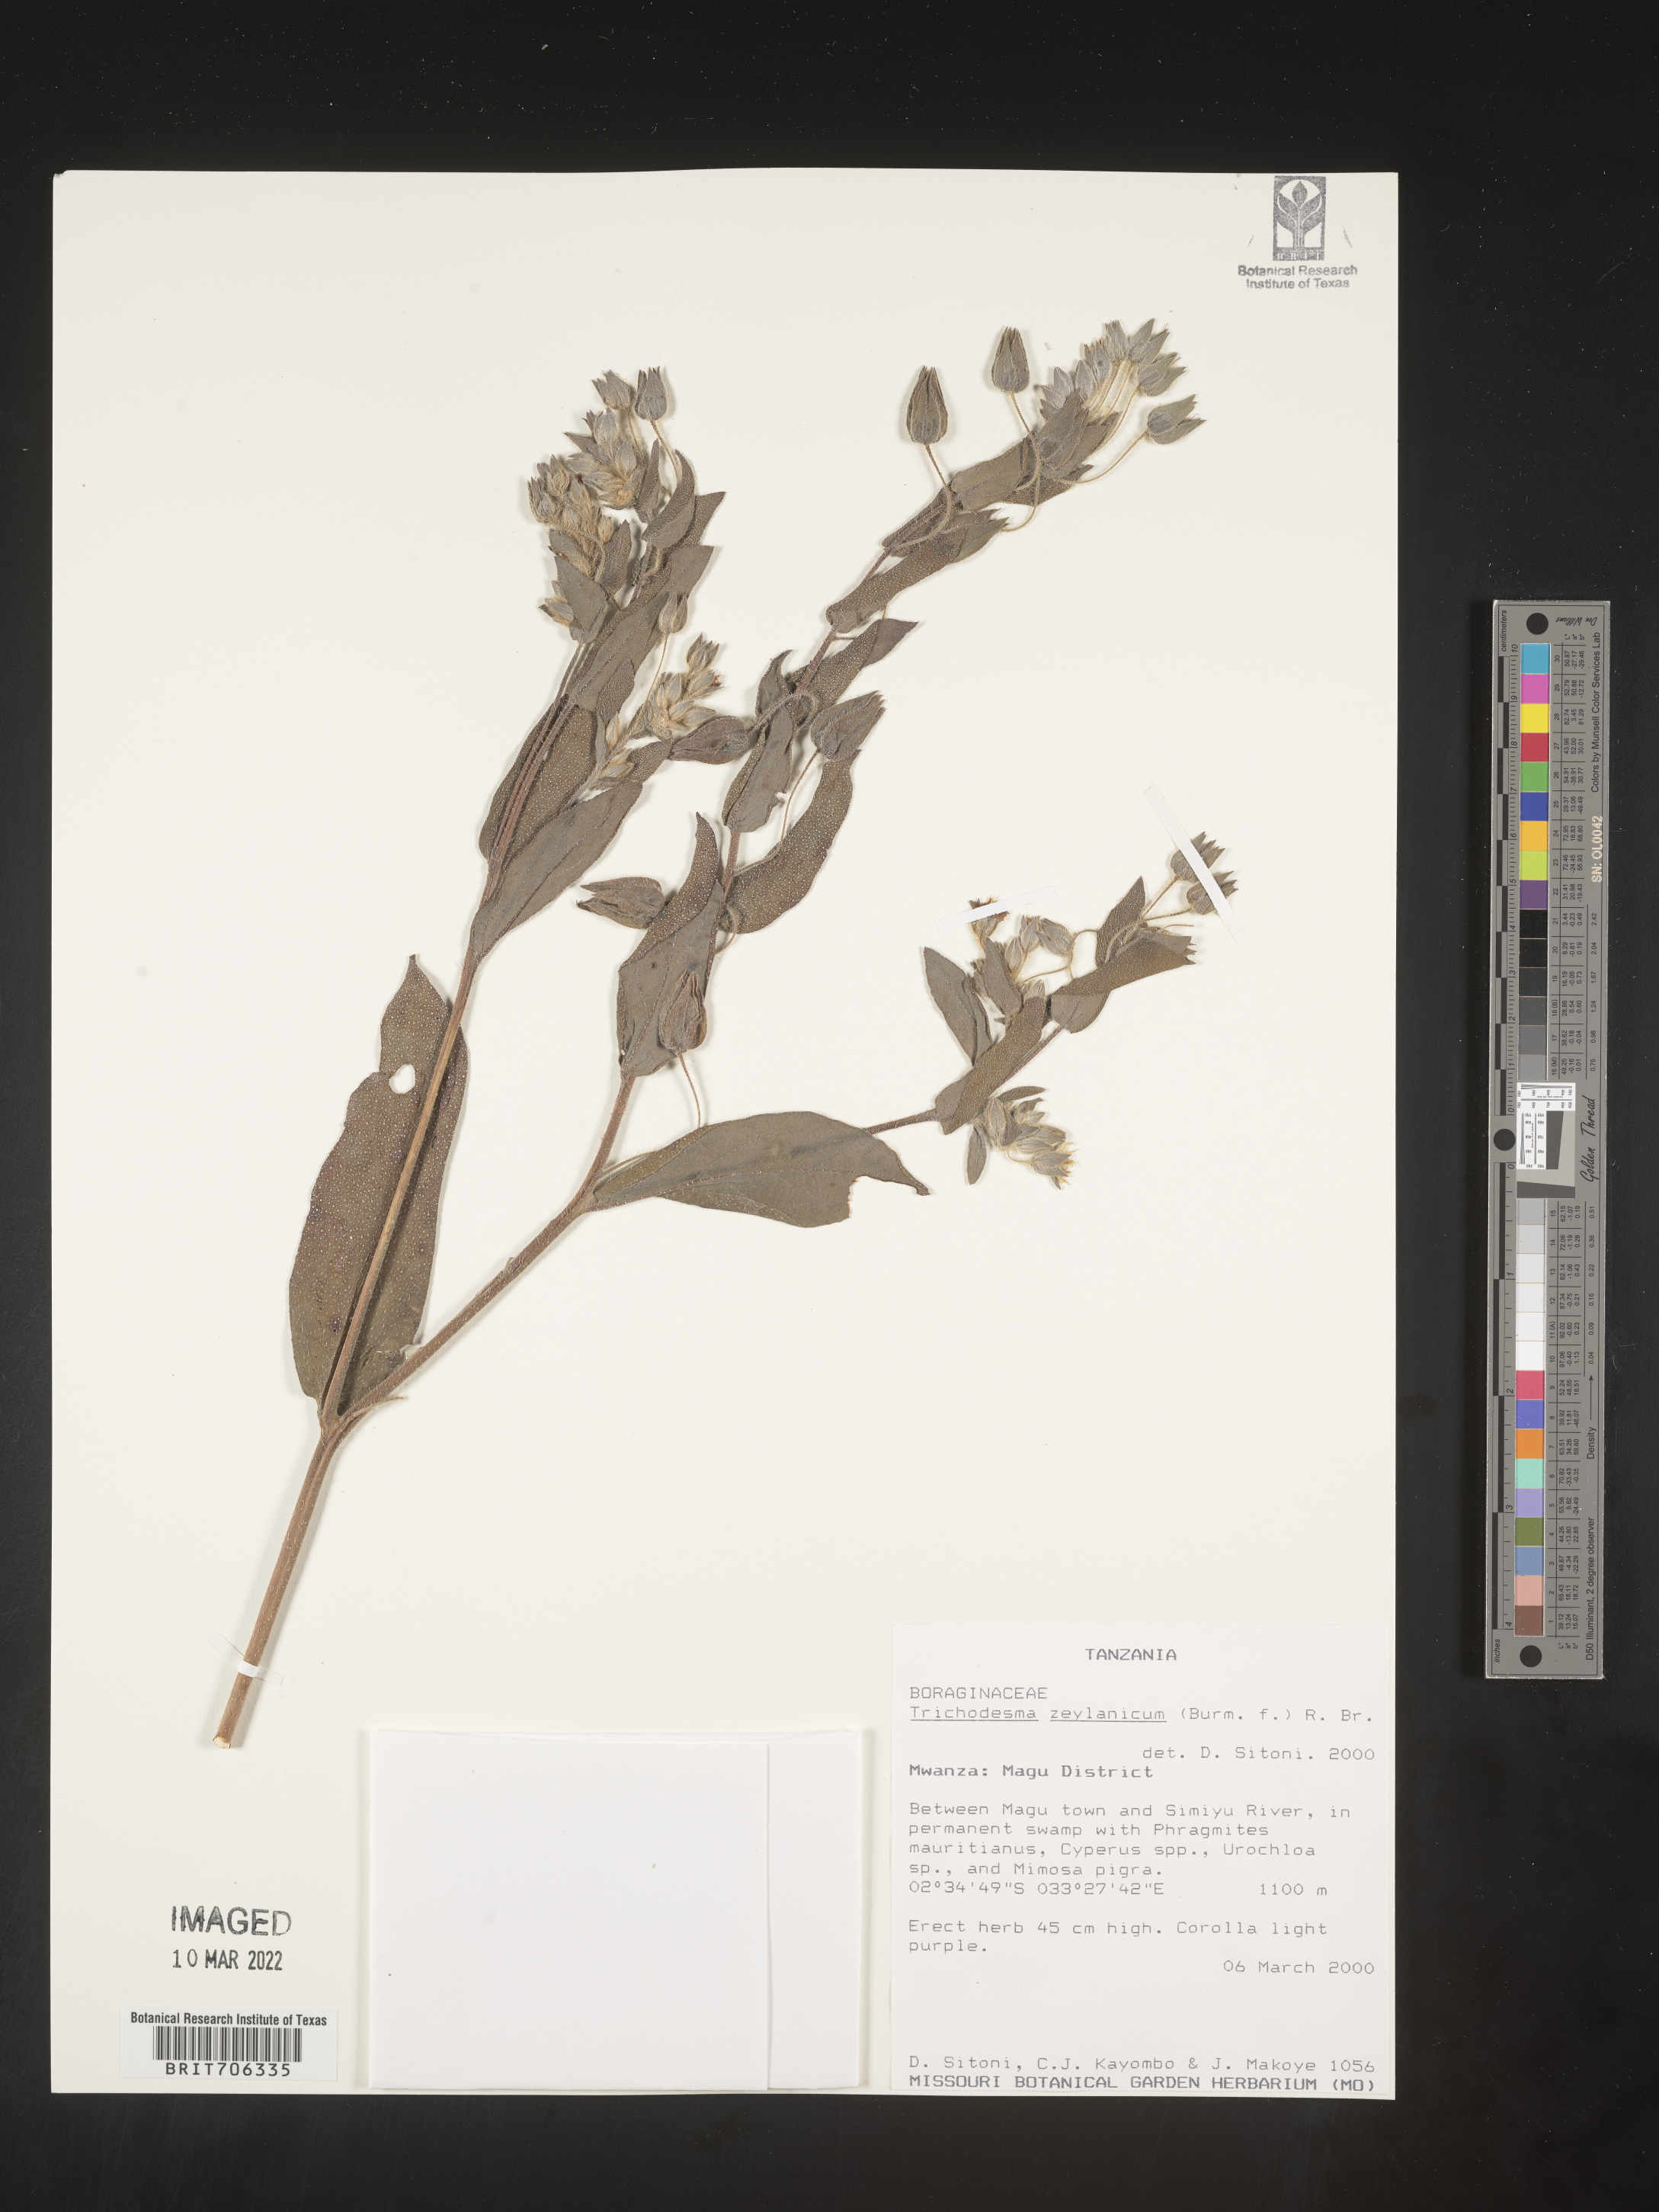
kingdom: Plantae
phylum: Tracheophyta
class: Magnoliopsida
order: Boraginales
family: Boraginaceae
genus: Trichodesma
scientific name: Trichodesma
